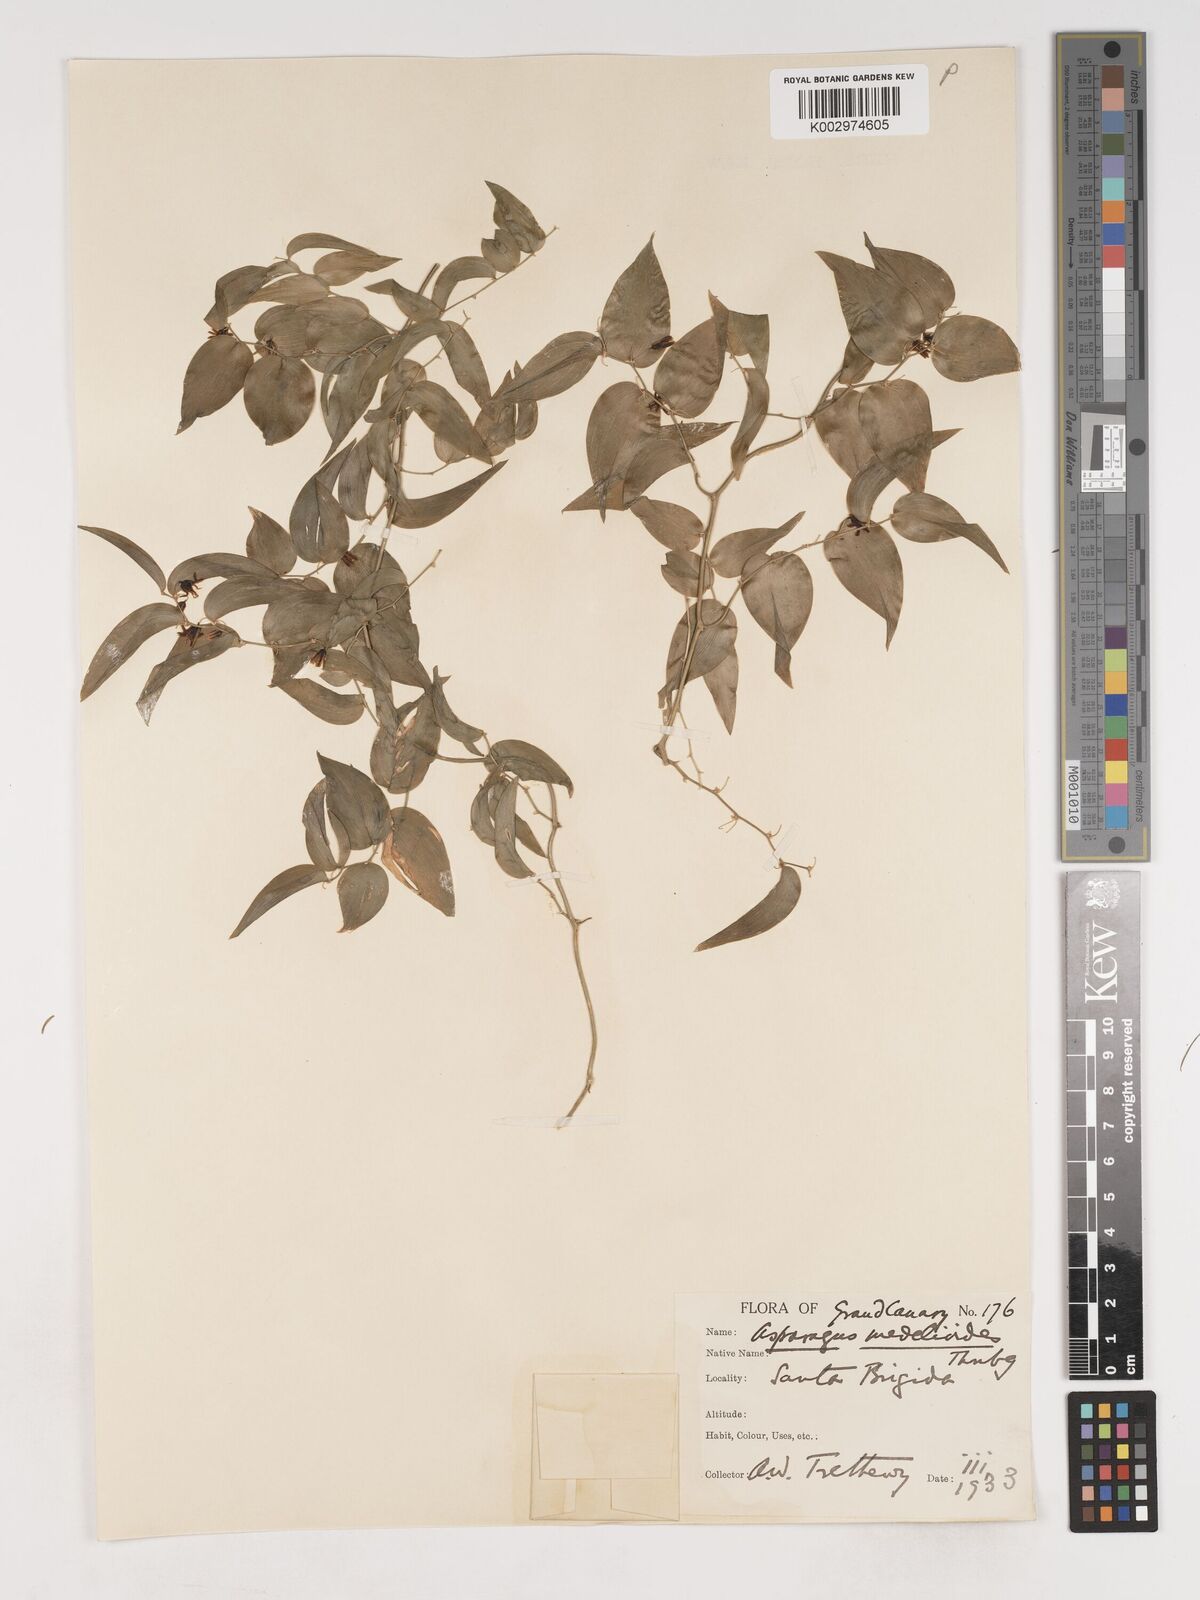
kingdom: Plantae
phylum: Tracheophyta
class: Liliopsida
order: Asparagales
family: Asparagaceae
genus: Asparagus
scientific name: Asparagus asparagoides
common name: African asparagus fern
